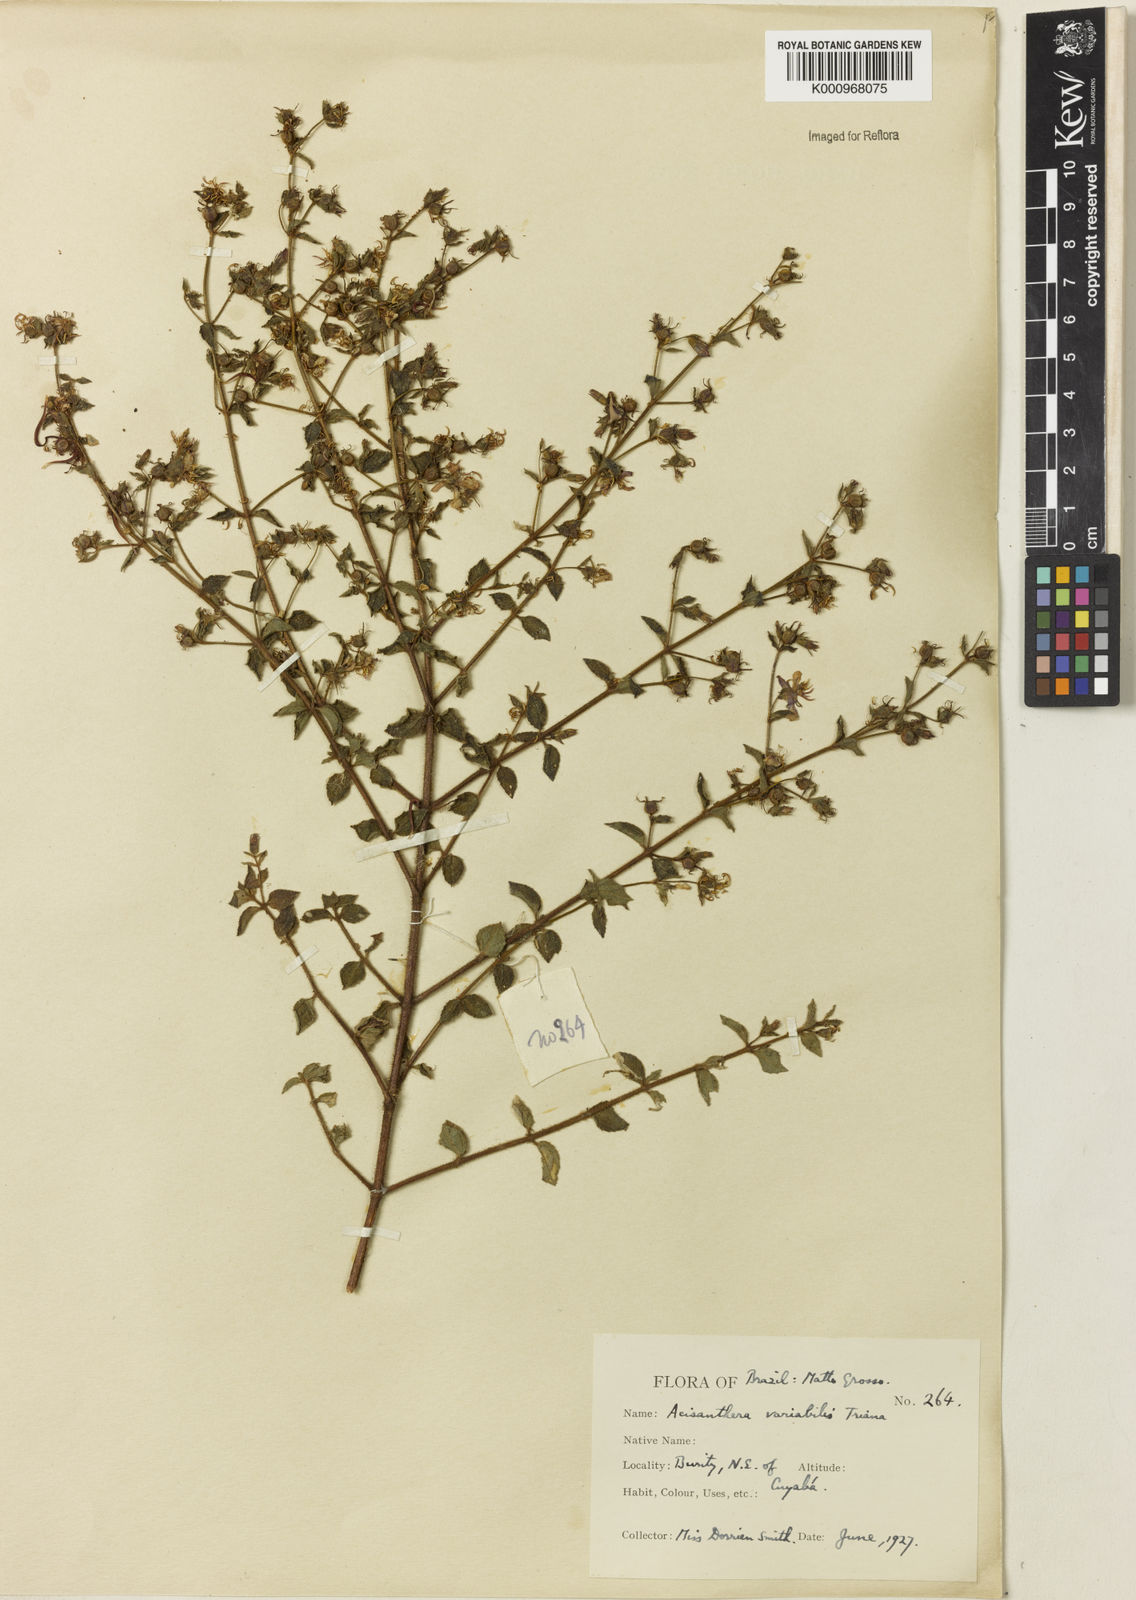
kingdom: Plantae
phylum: Tracheophyta
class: Magnoliopsida
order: Myrtales
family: Melastomataceae
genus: Acisanthera
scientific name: Acisanthera variabilis
